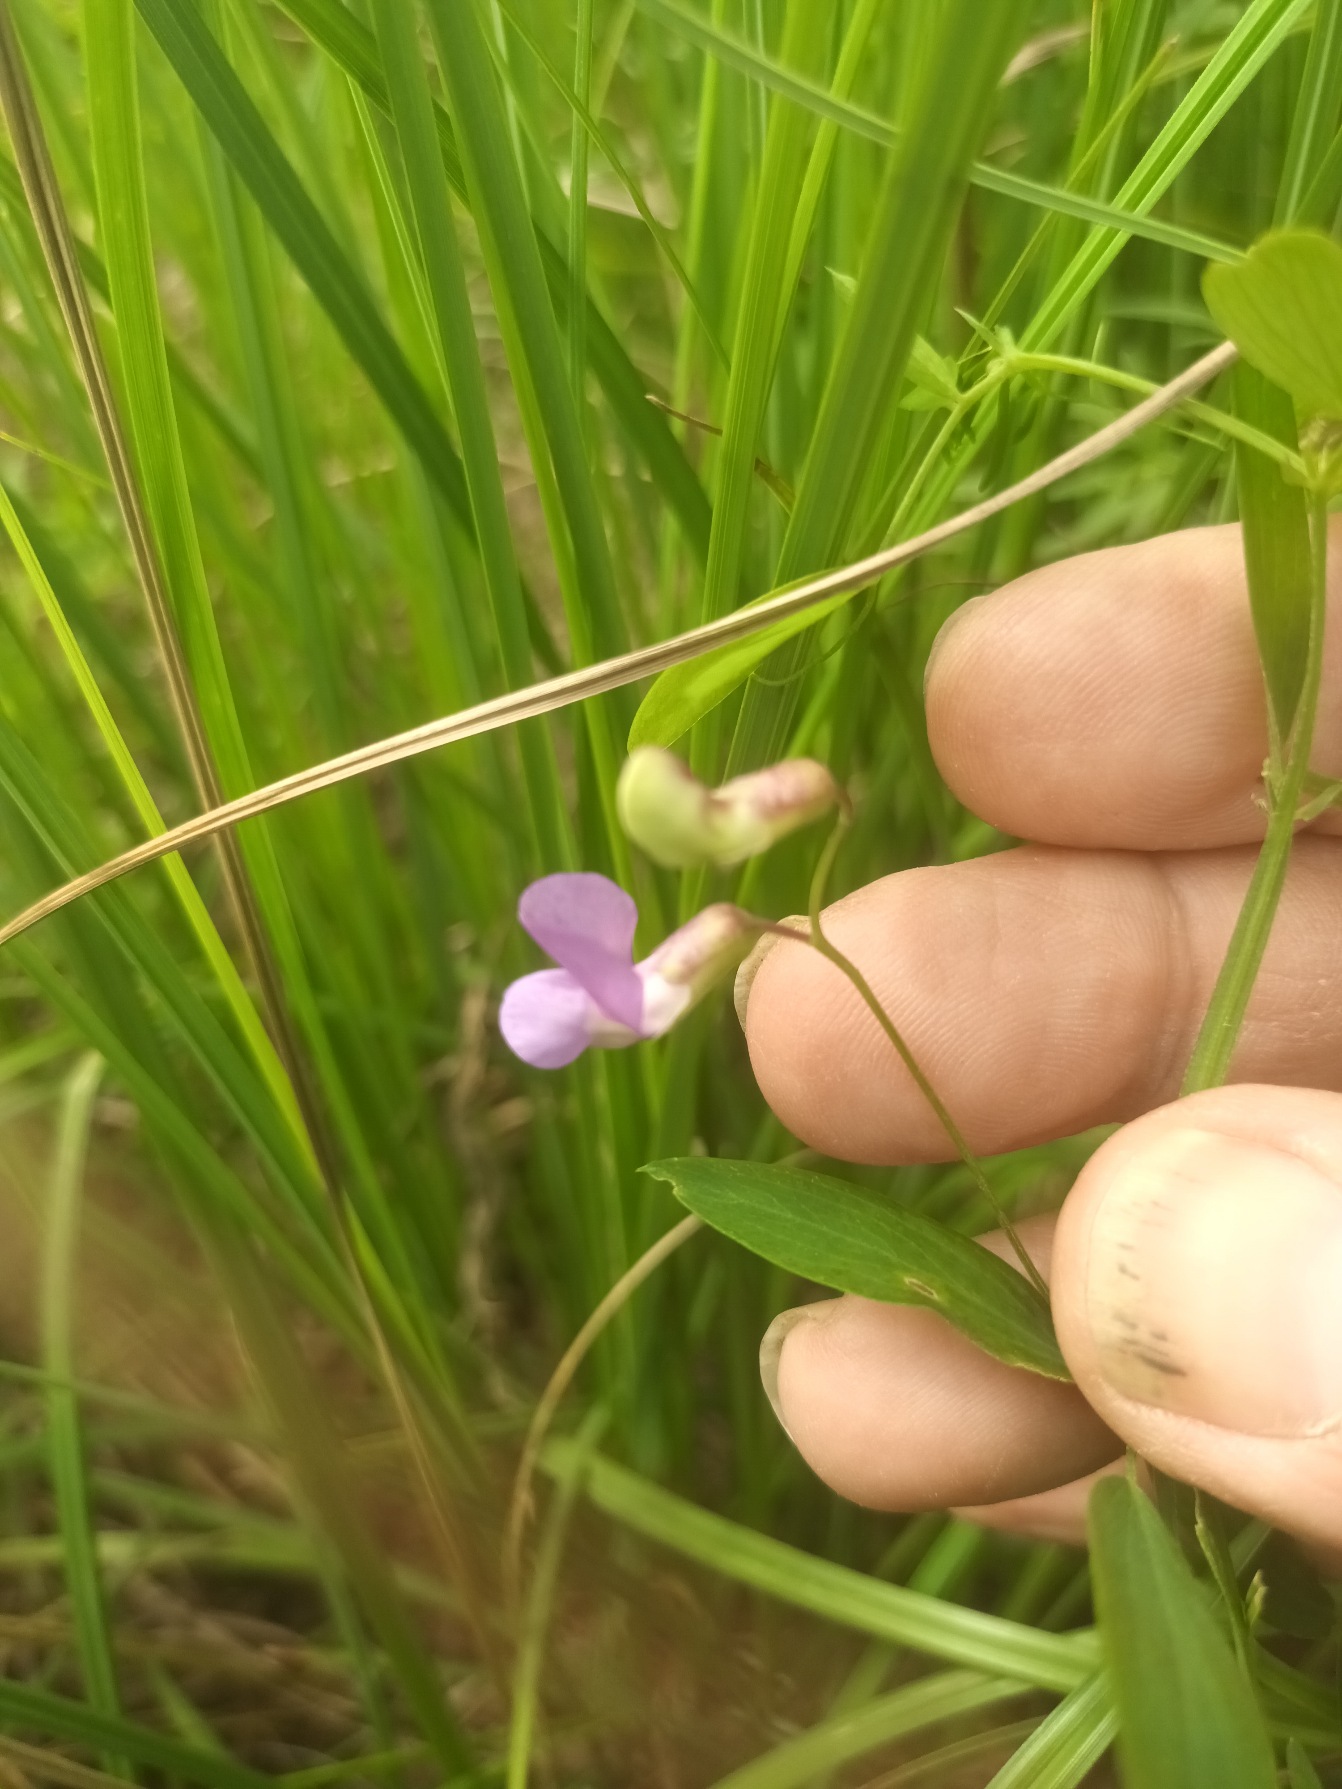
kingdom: Plantae
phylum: Tracheophyta
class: Magnoliopsida
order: Fabales
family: Fabaceae
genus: Lathyrus
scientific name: Lathyrus palustris
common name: Kær-fladbælg
